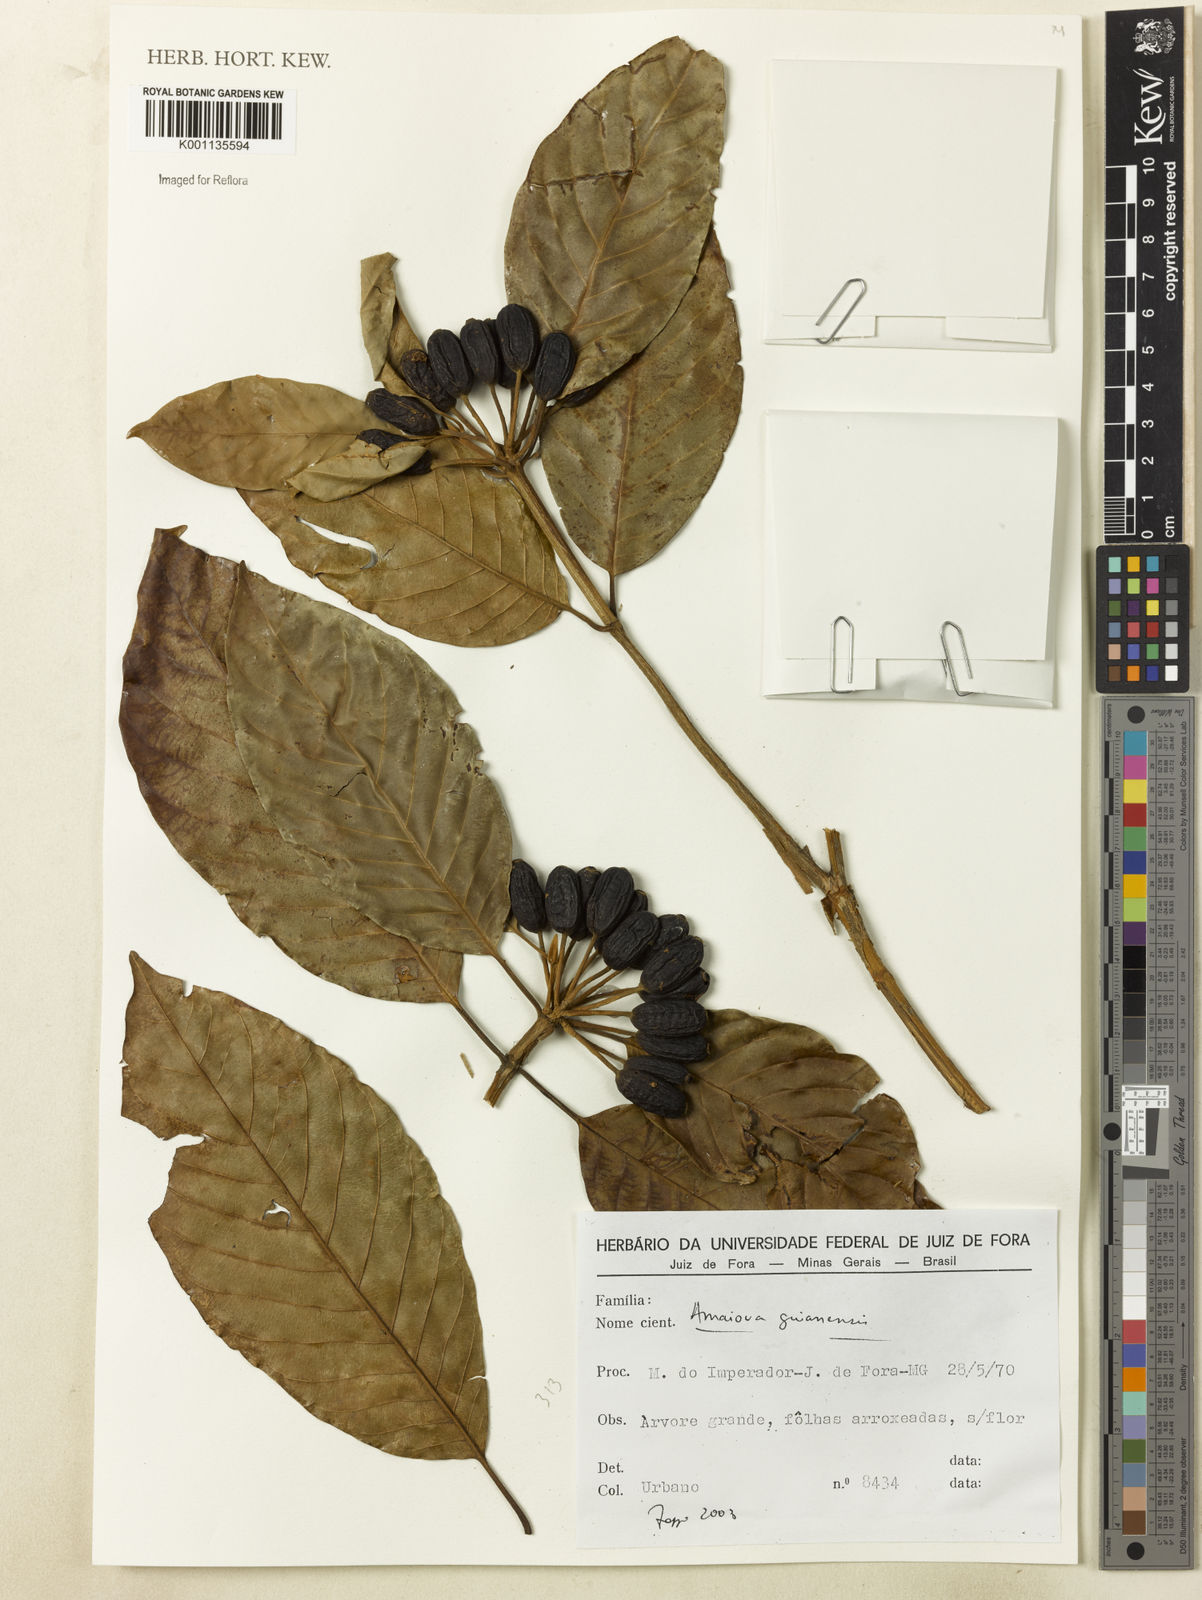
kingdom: Plantae
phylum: Tracheophyta
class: Magnoliopsida
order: Gentianales
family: Rubiaceae
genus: Amaioua
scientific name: Amaioua intermedia
